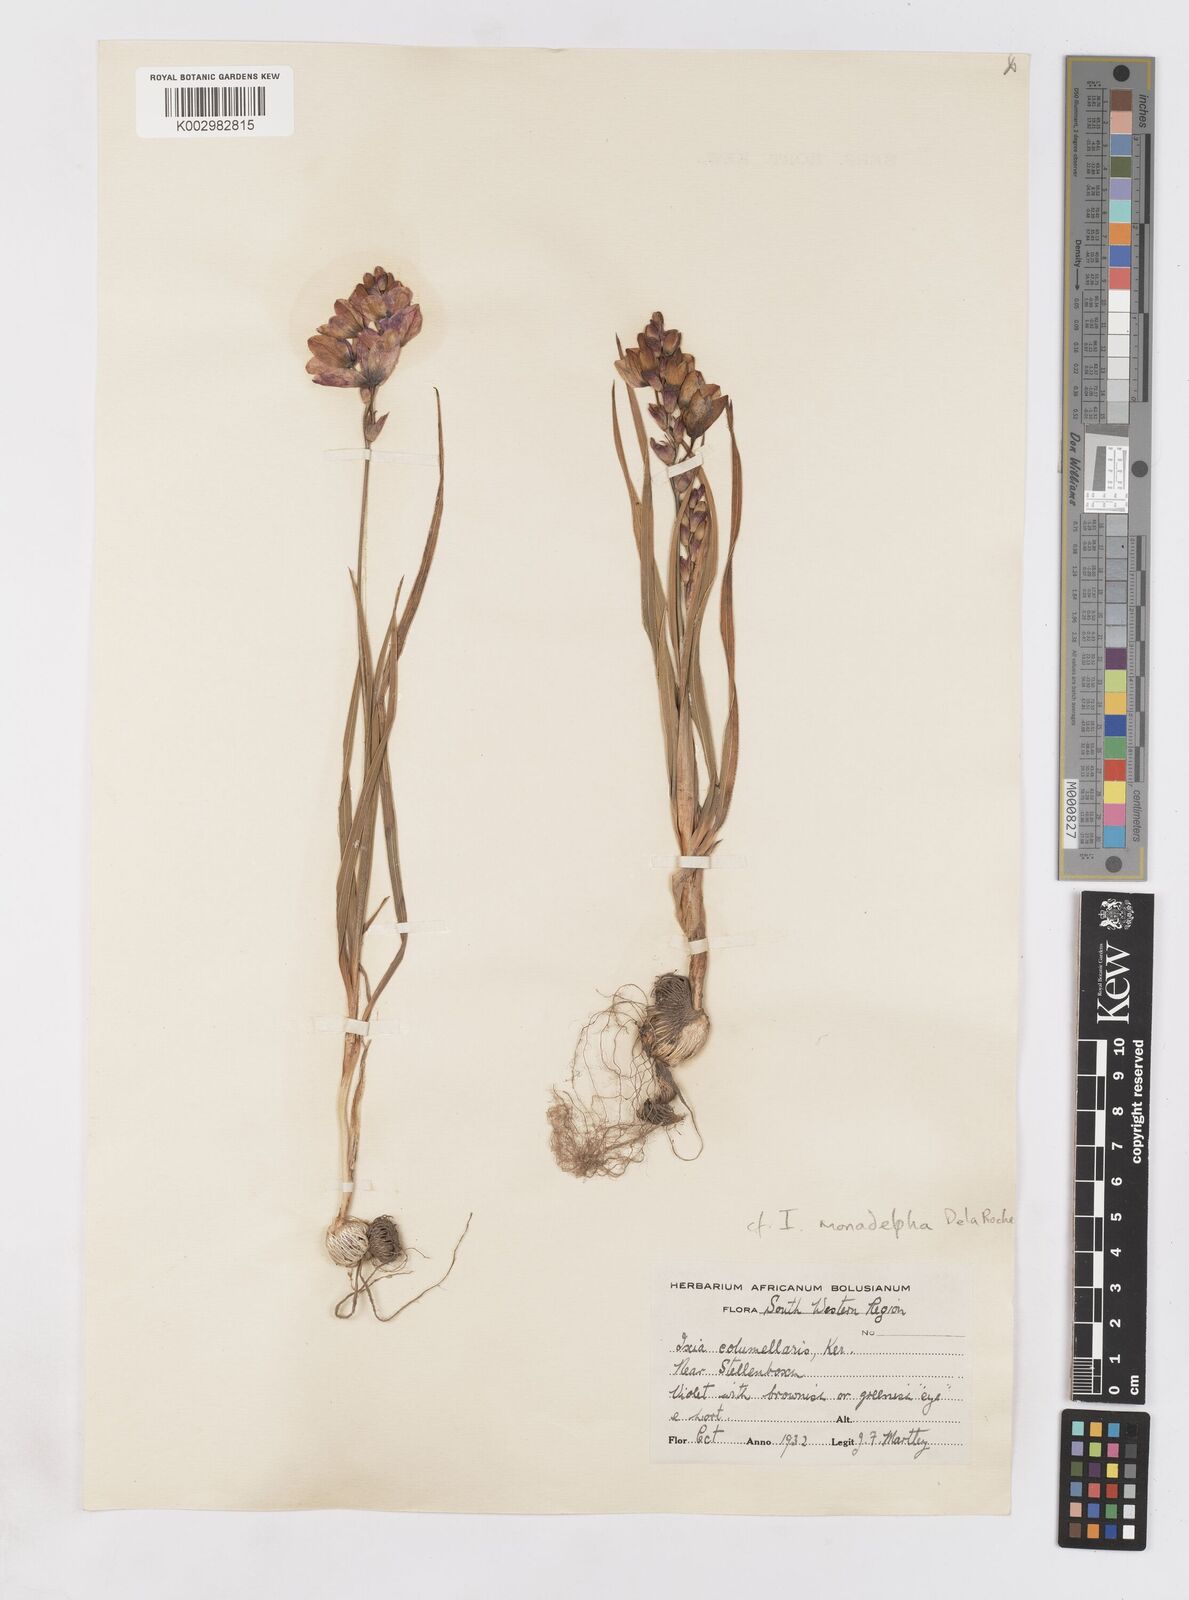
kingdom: Plantae
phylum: Tracheophyta
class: Liliopsida
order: Asparagales
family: Iridaceae
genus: Ixia
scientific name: Ixia monadelpha
